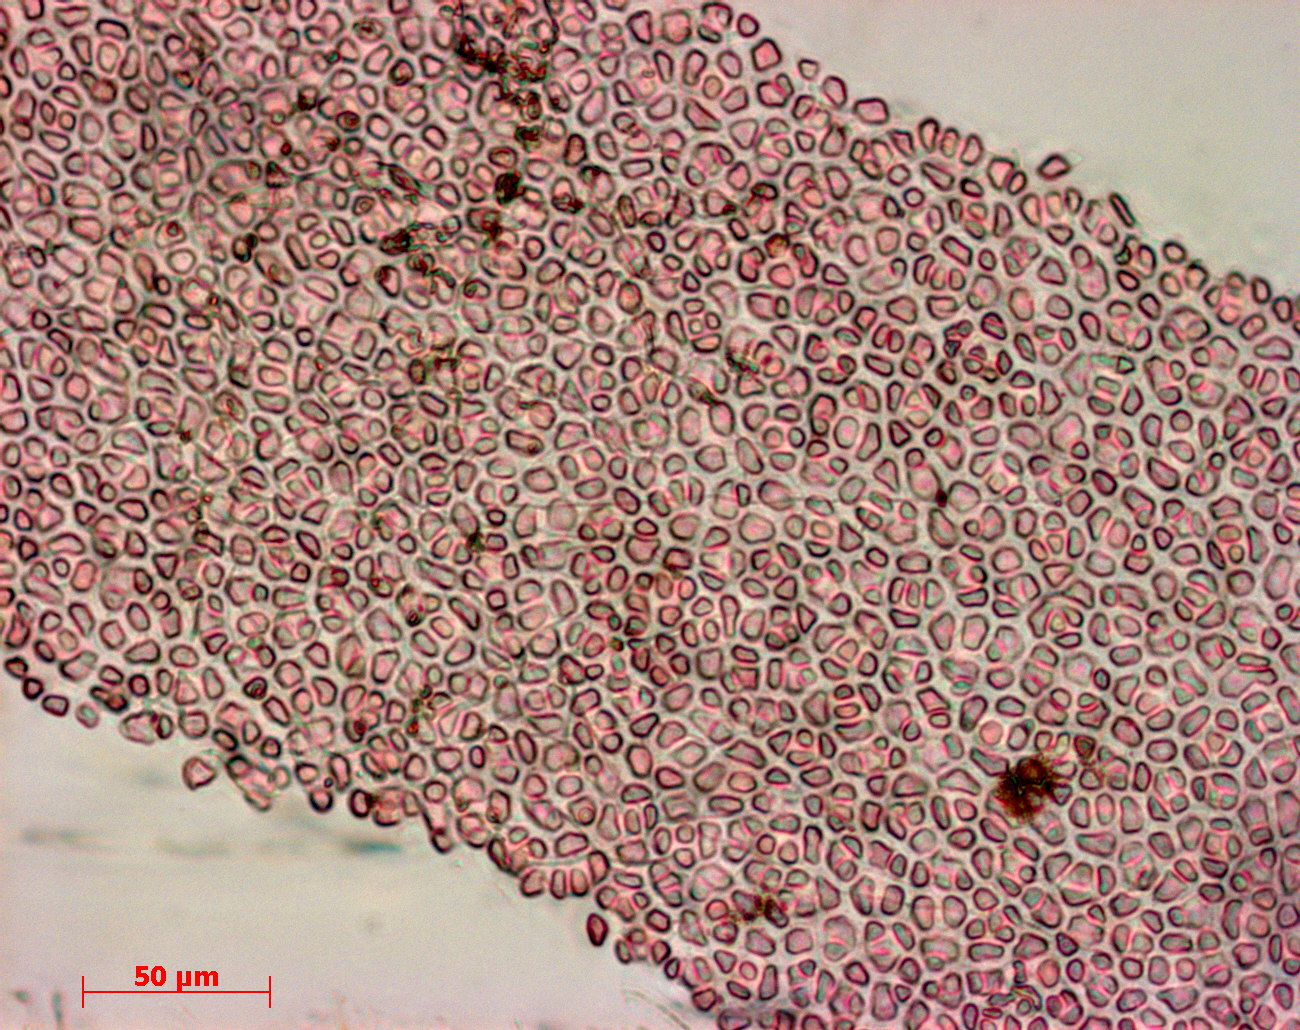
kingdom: Plantae
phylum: Rhodophyta
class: Florideophyceae
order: Gigartinales
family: Kallymeniaceae
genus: Psaromenia
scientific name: Psaromenia berggrenii
